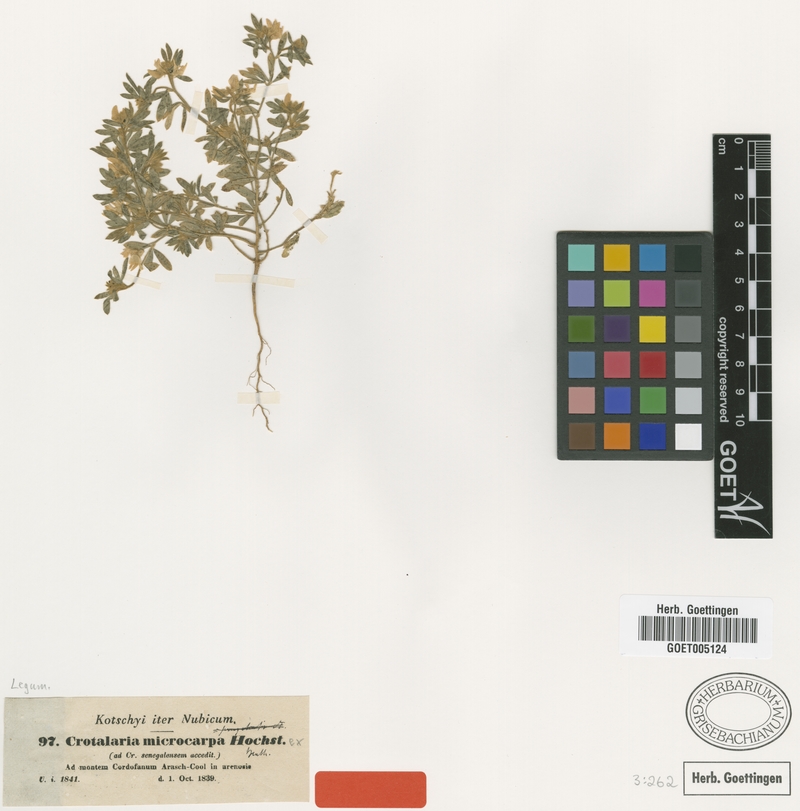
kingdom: Plantae
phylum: Tracheophyta
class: Magnoliopsida
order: Fabales
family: Fabaceae
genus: Crotalaria
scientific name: Crotalaria microcarpa
